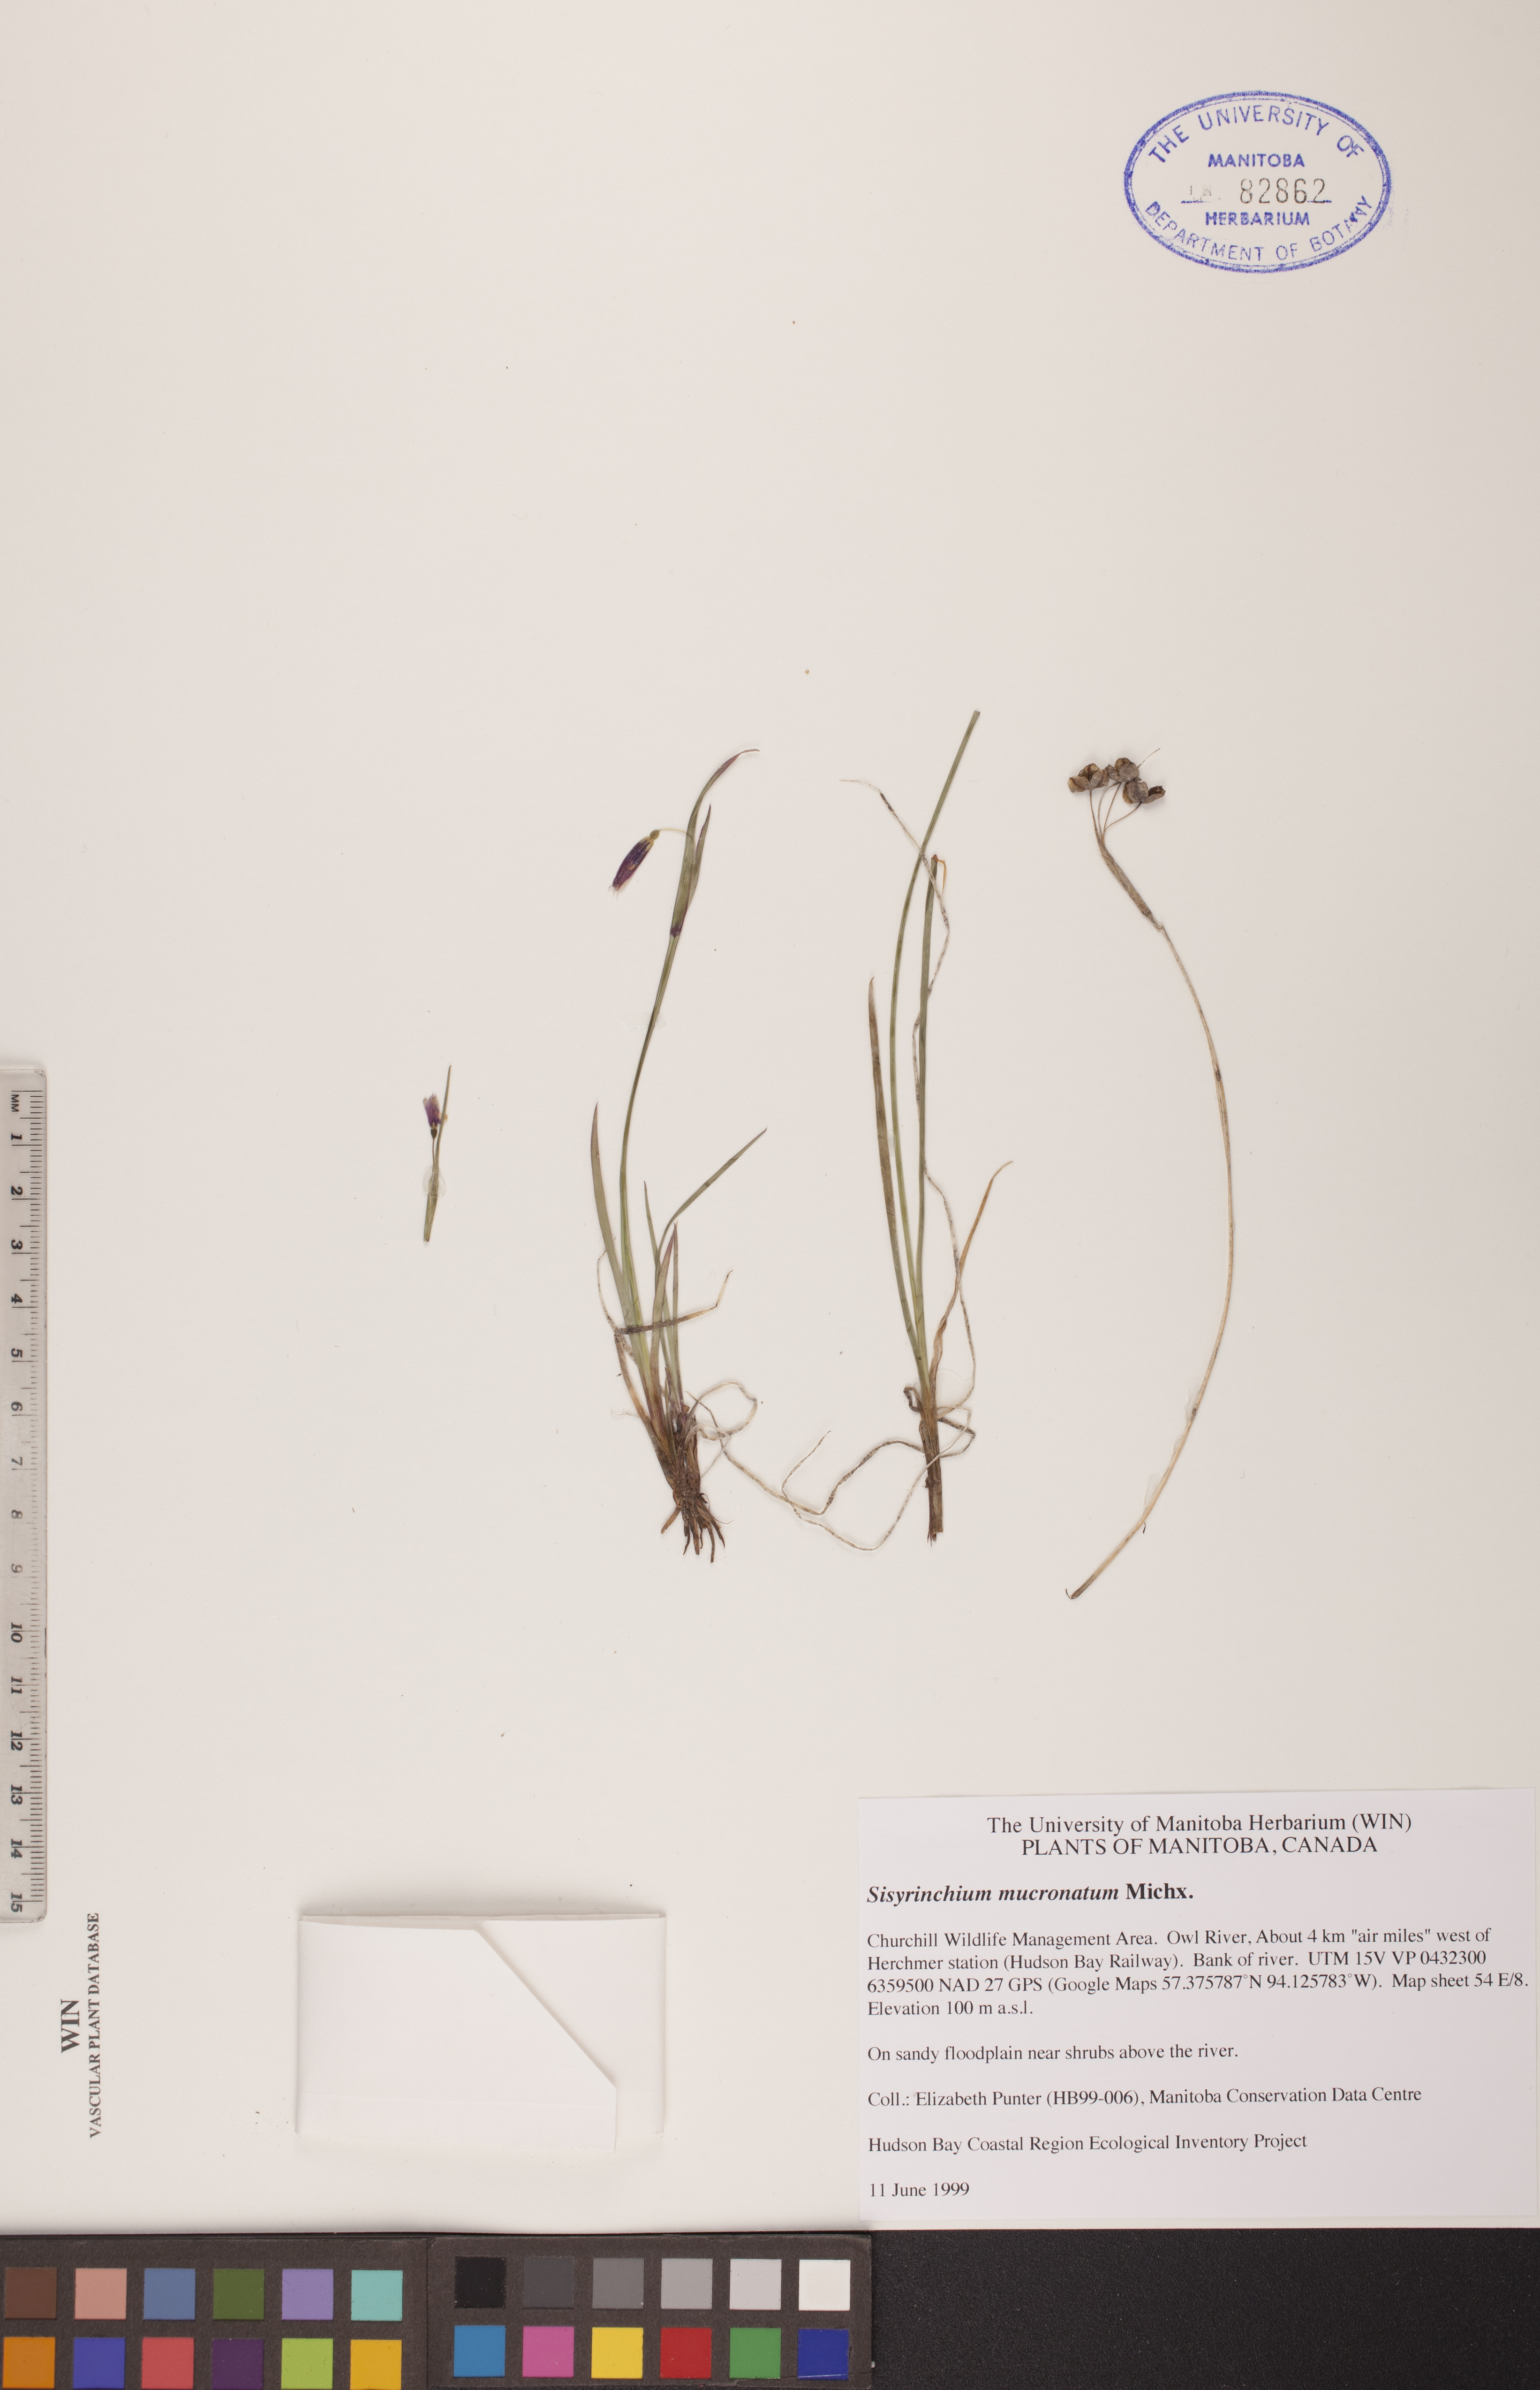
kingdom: Plantae
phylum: Tracheophyta
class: Liliopsida
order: Asparagales
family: Iridaceae
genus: Sisyrinchium
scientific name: Sisyrinchium mucronatum
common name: Eastern blue-eyed-grass
